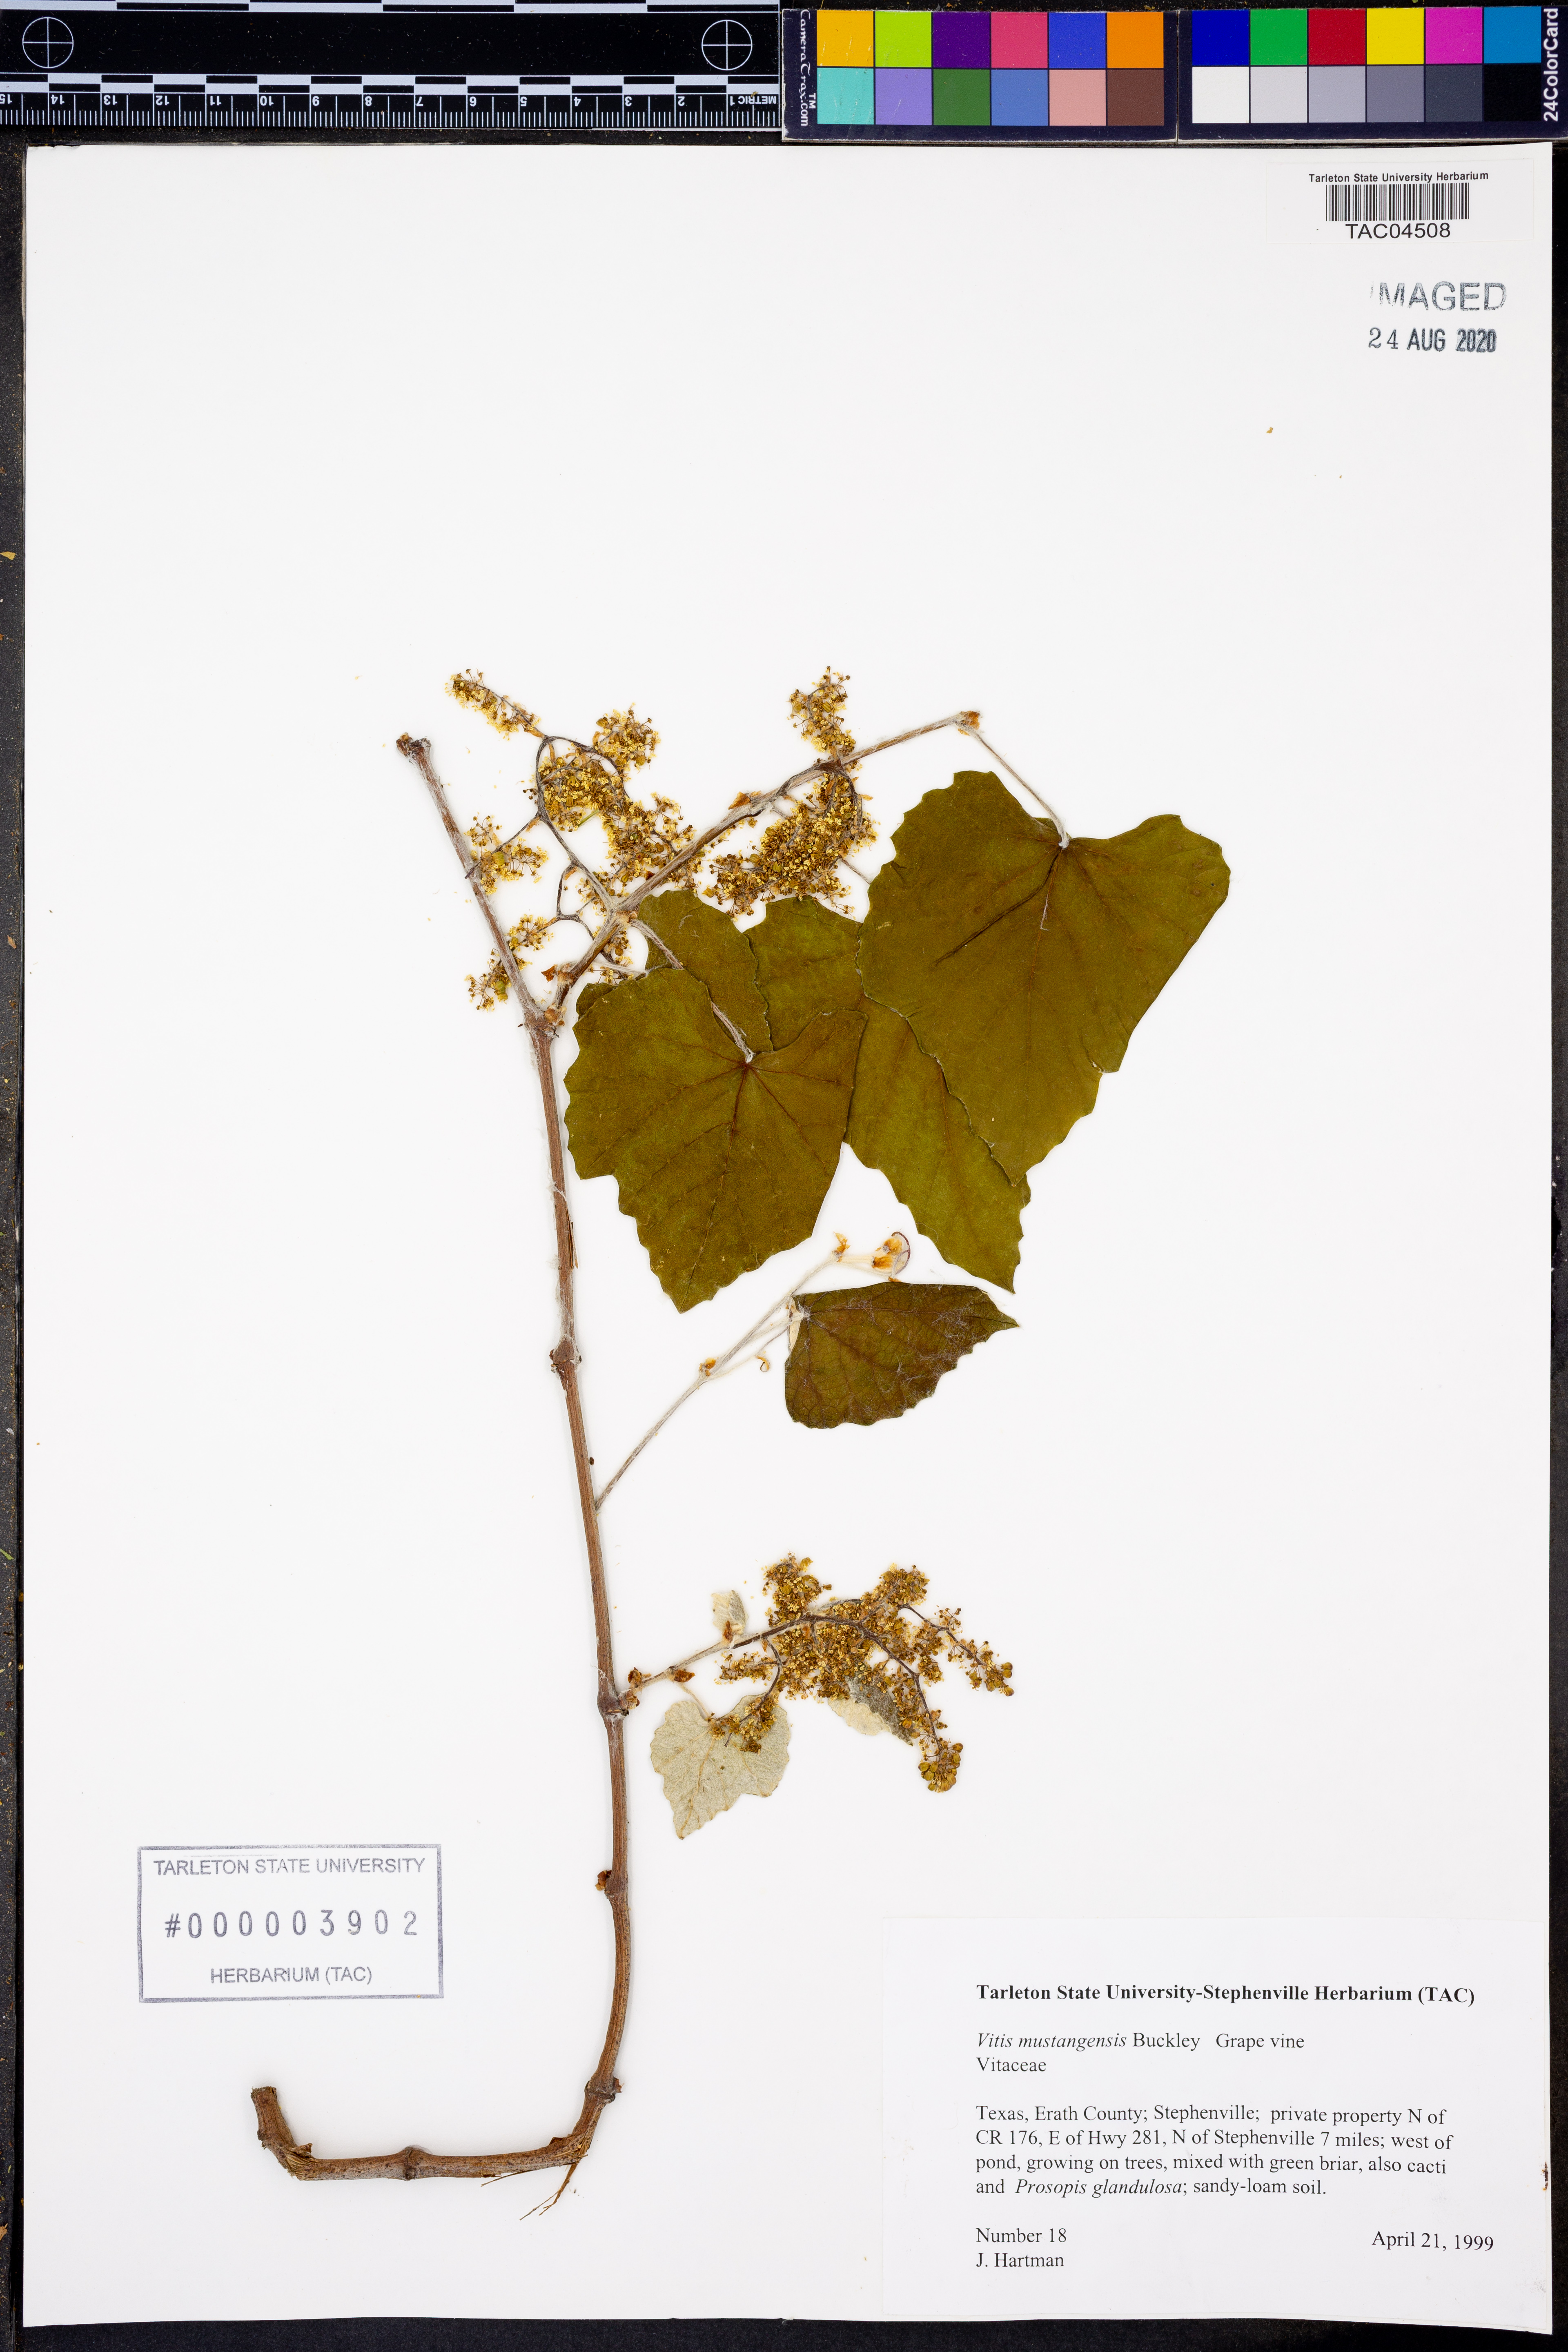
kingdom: Plantae
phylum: Tracheophyta
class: Magnoliopsida
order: Vitales
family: Vitaceae
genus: Vitis
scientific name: Vitis mustangensis
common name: Mustang grape
